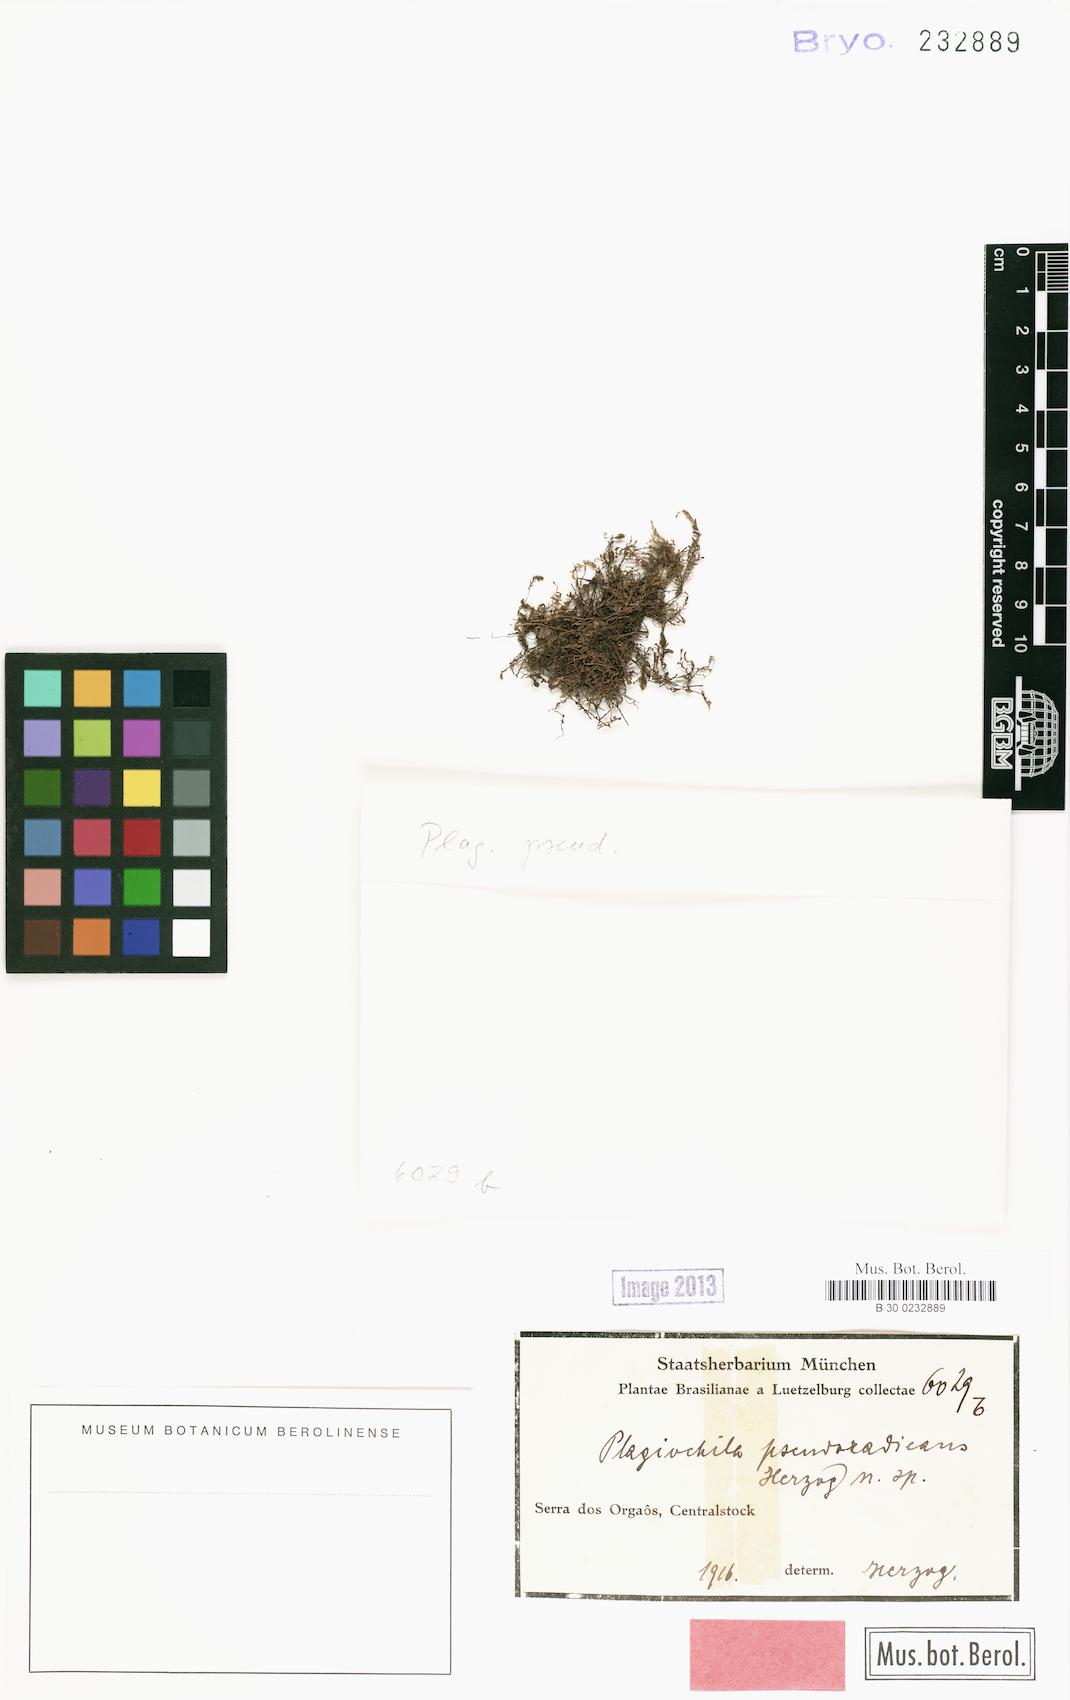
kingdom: Plantae
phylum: Marchantiophyta
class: Jungermanniopsida
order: Jungermanniales
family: Plagiochilaceae
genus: Plagiochila
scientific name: Plagiochila pseudoradicans
